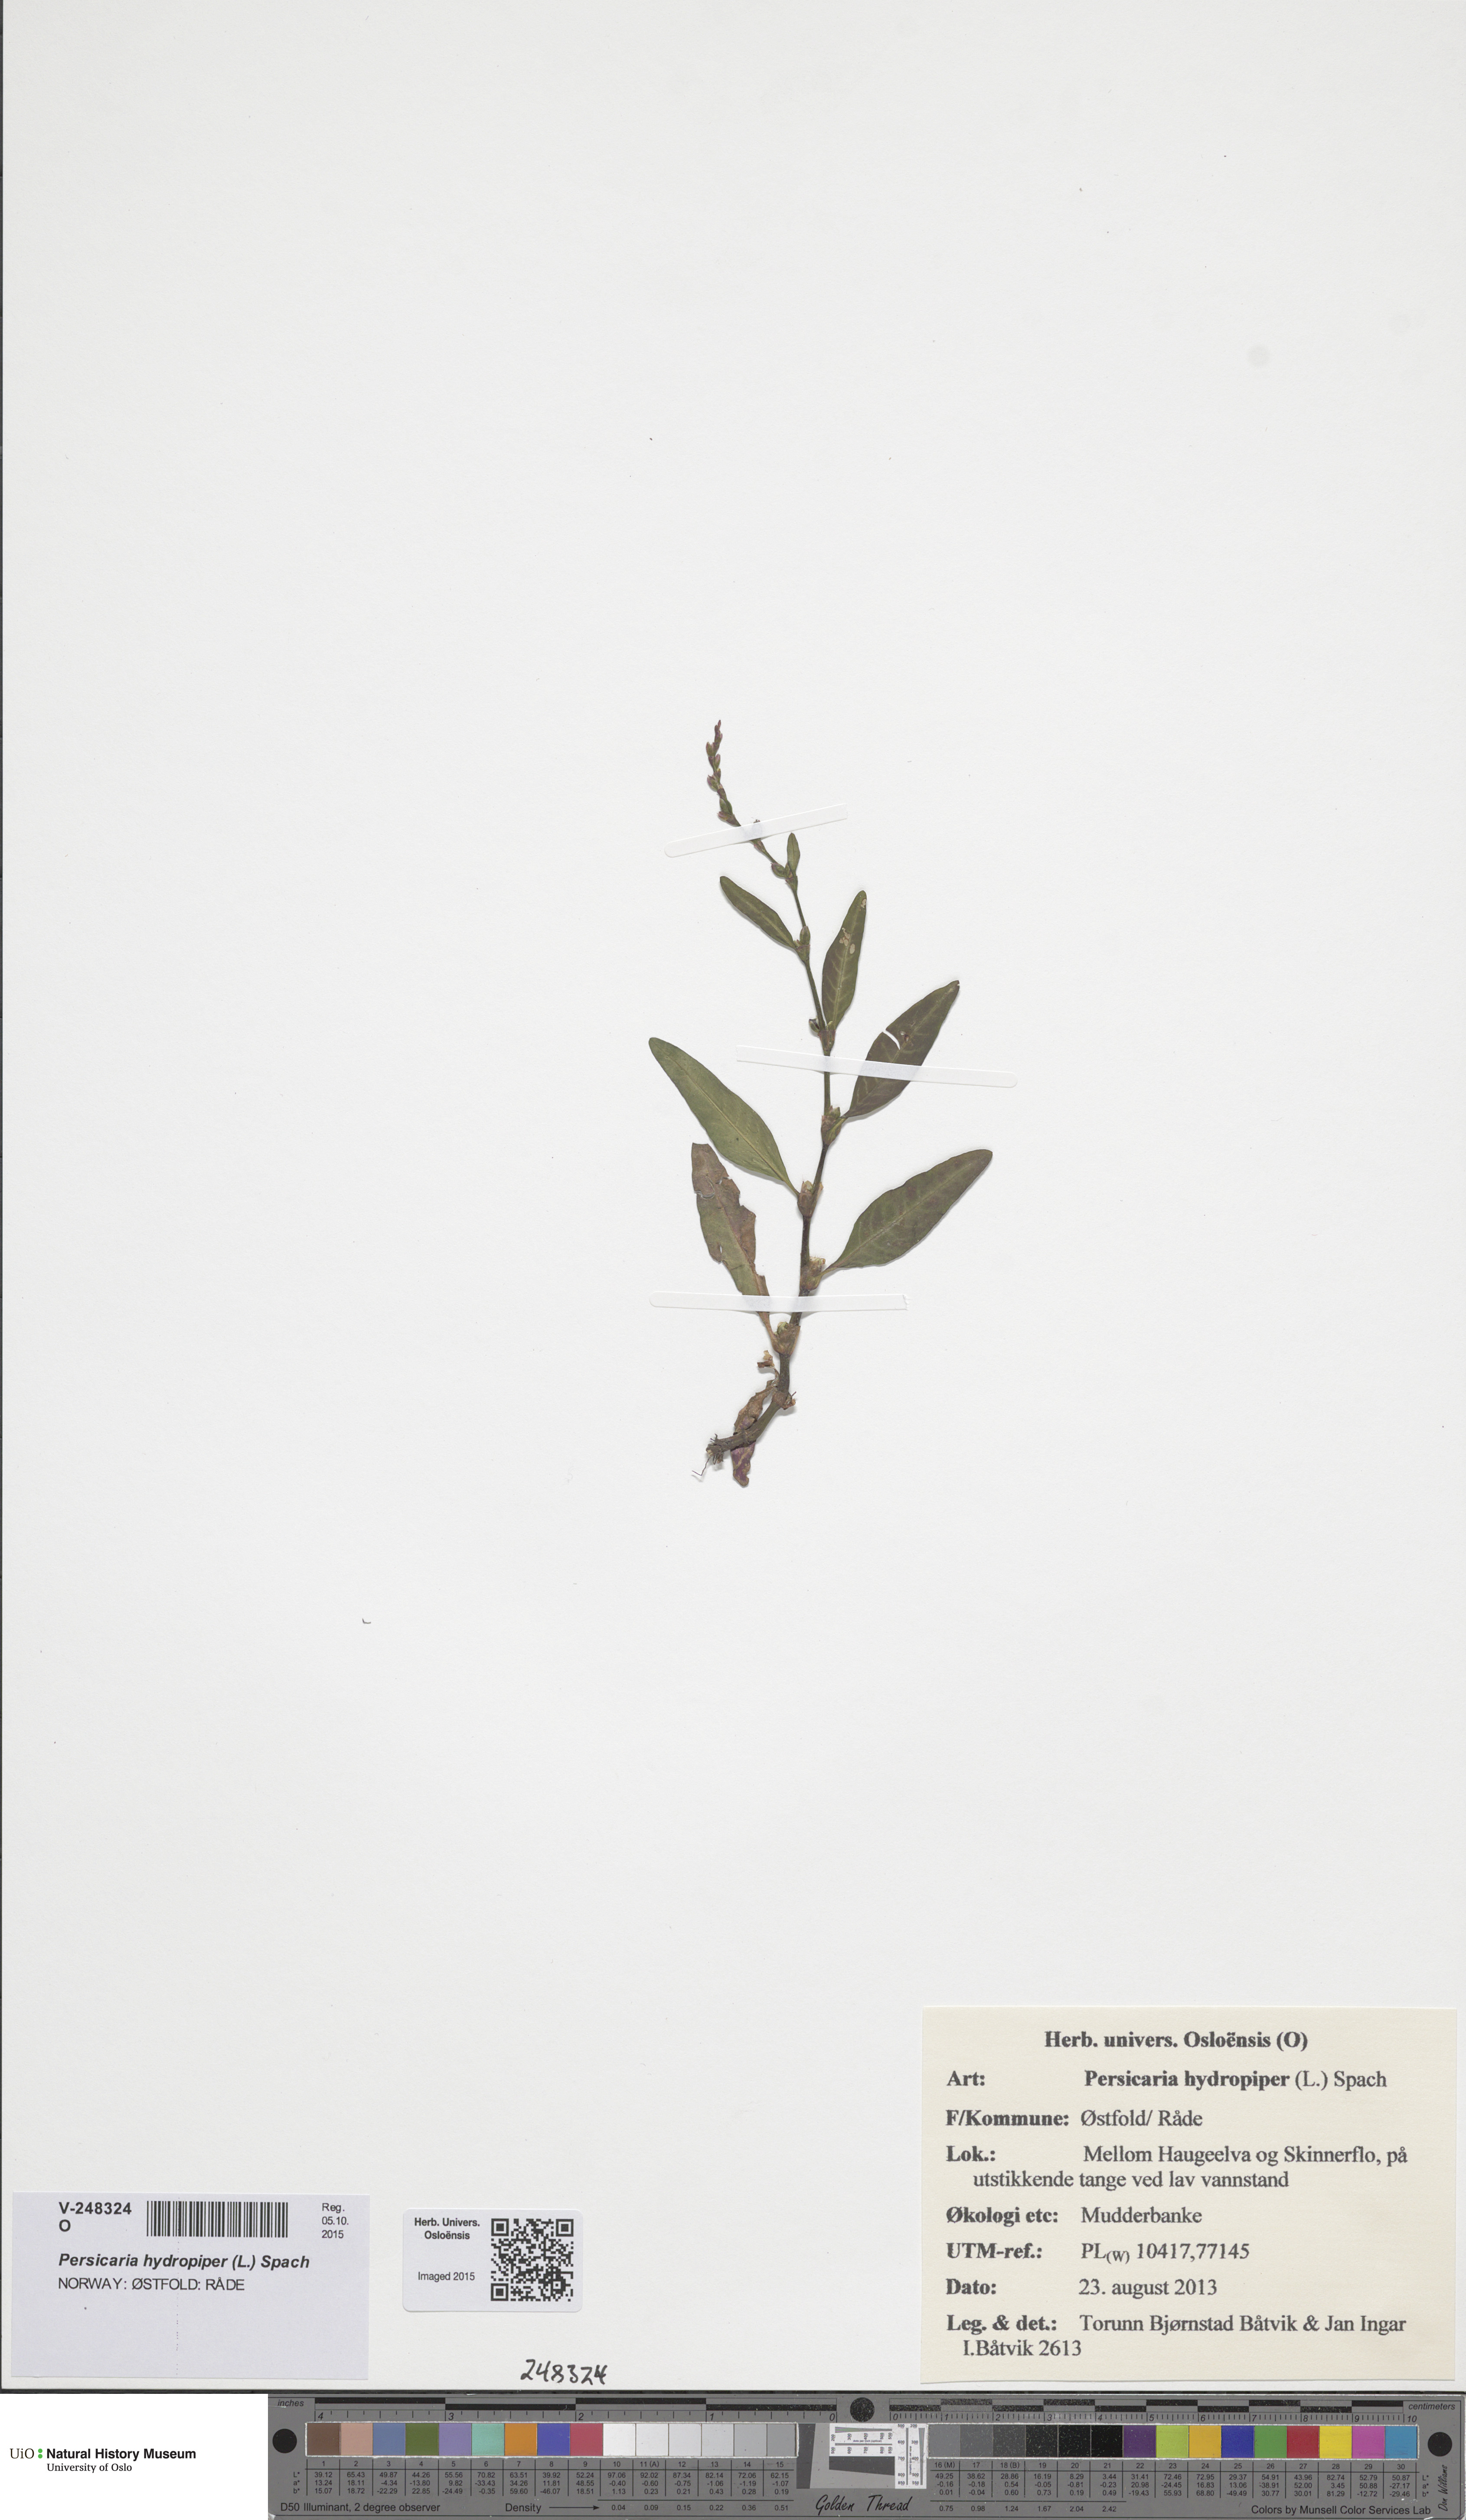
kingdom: Plantae
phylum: Tracheophyta
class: Magnoliopsida
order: Caryophyllales
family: Polygonaceae
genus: Persicaria
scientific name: Persicaria hydropiper
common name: Water-pepper
